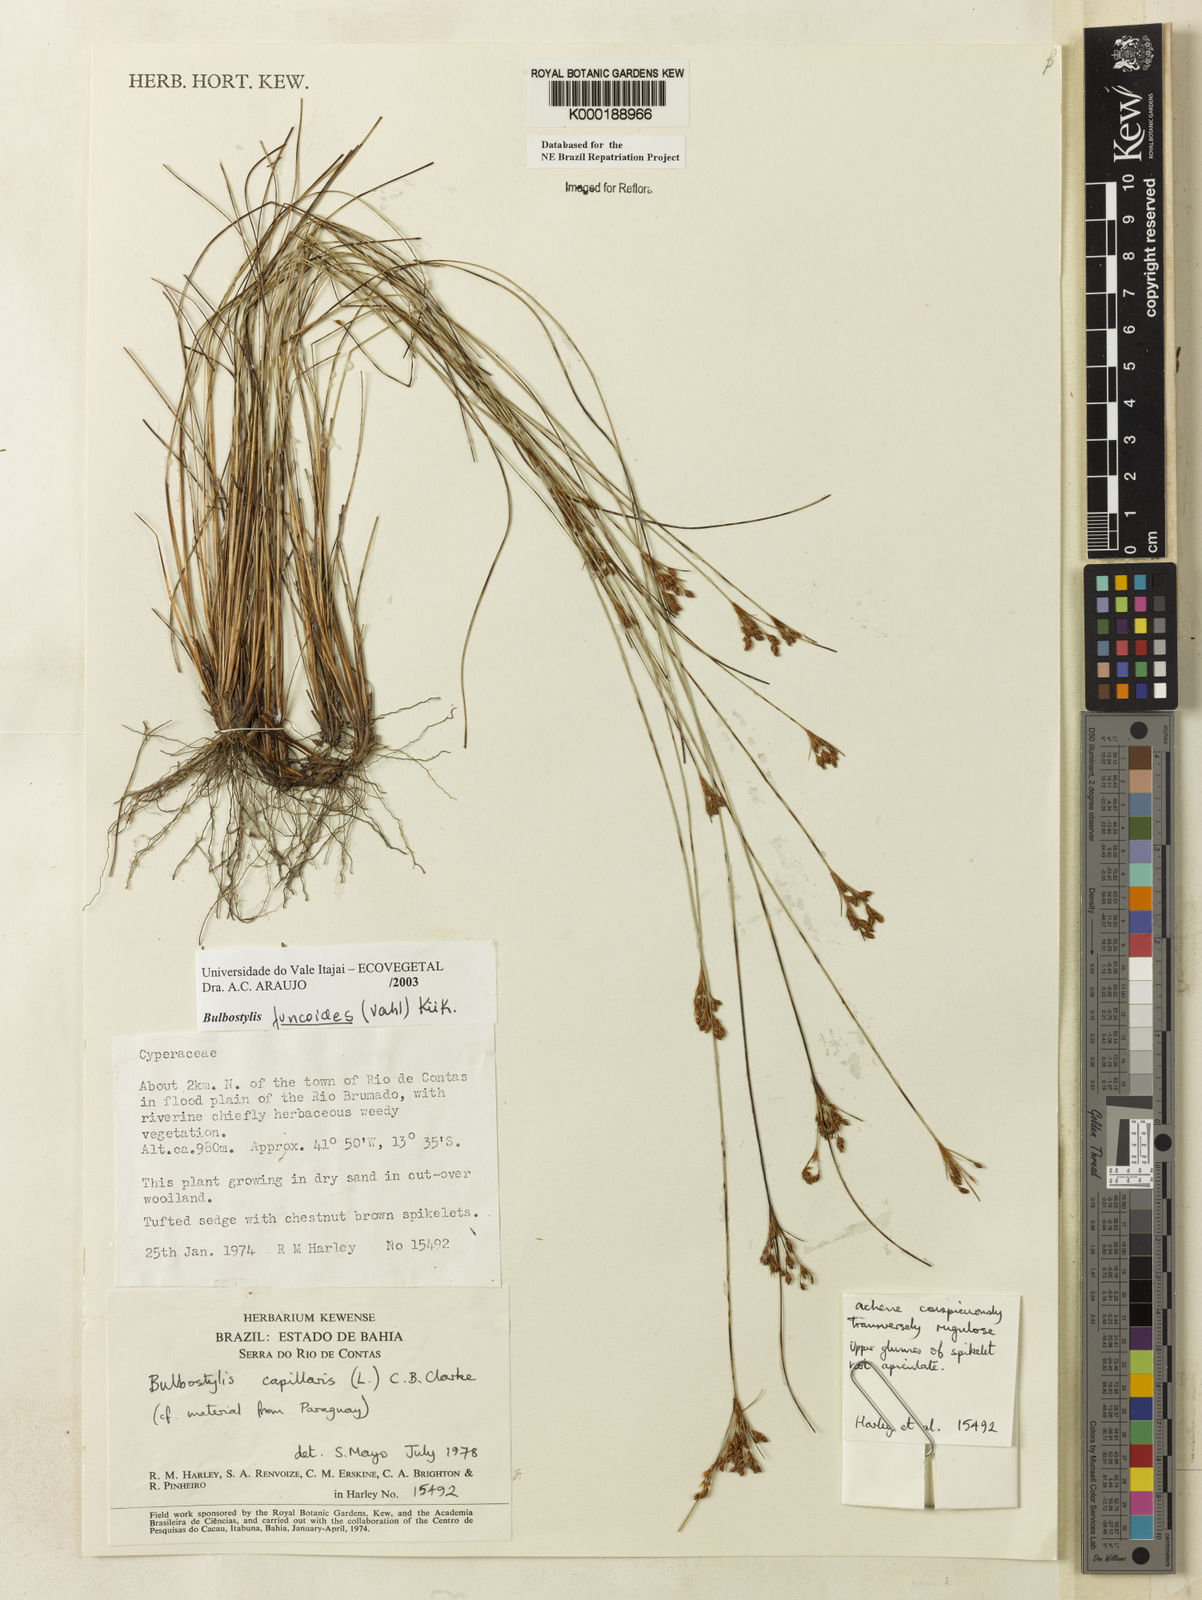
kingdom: Plantae
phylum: Tracheophyta
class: Liliopsida
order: Poales
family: Cyperaceae
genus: Bulbostylis
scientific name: Bulbostylis
